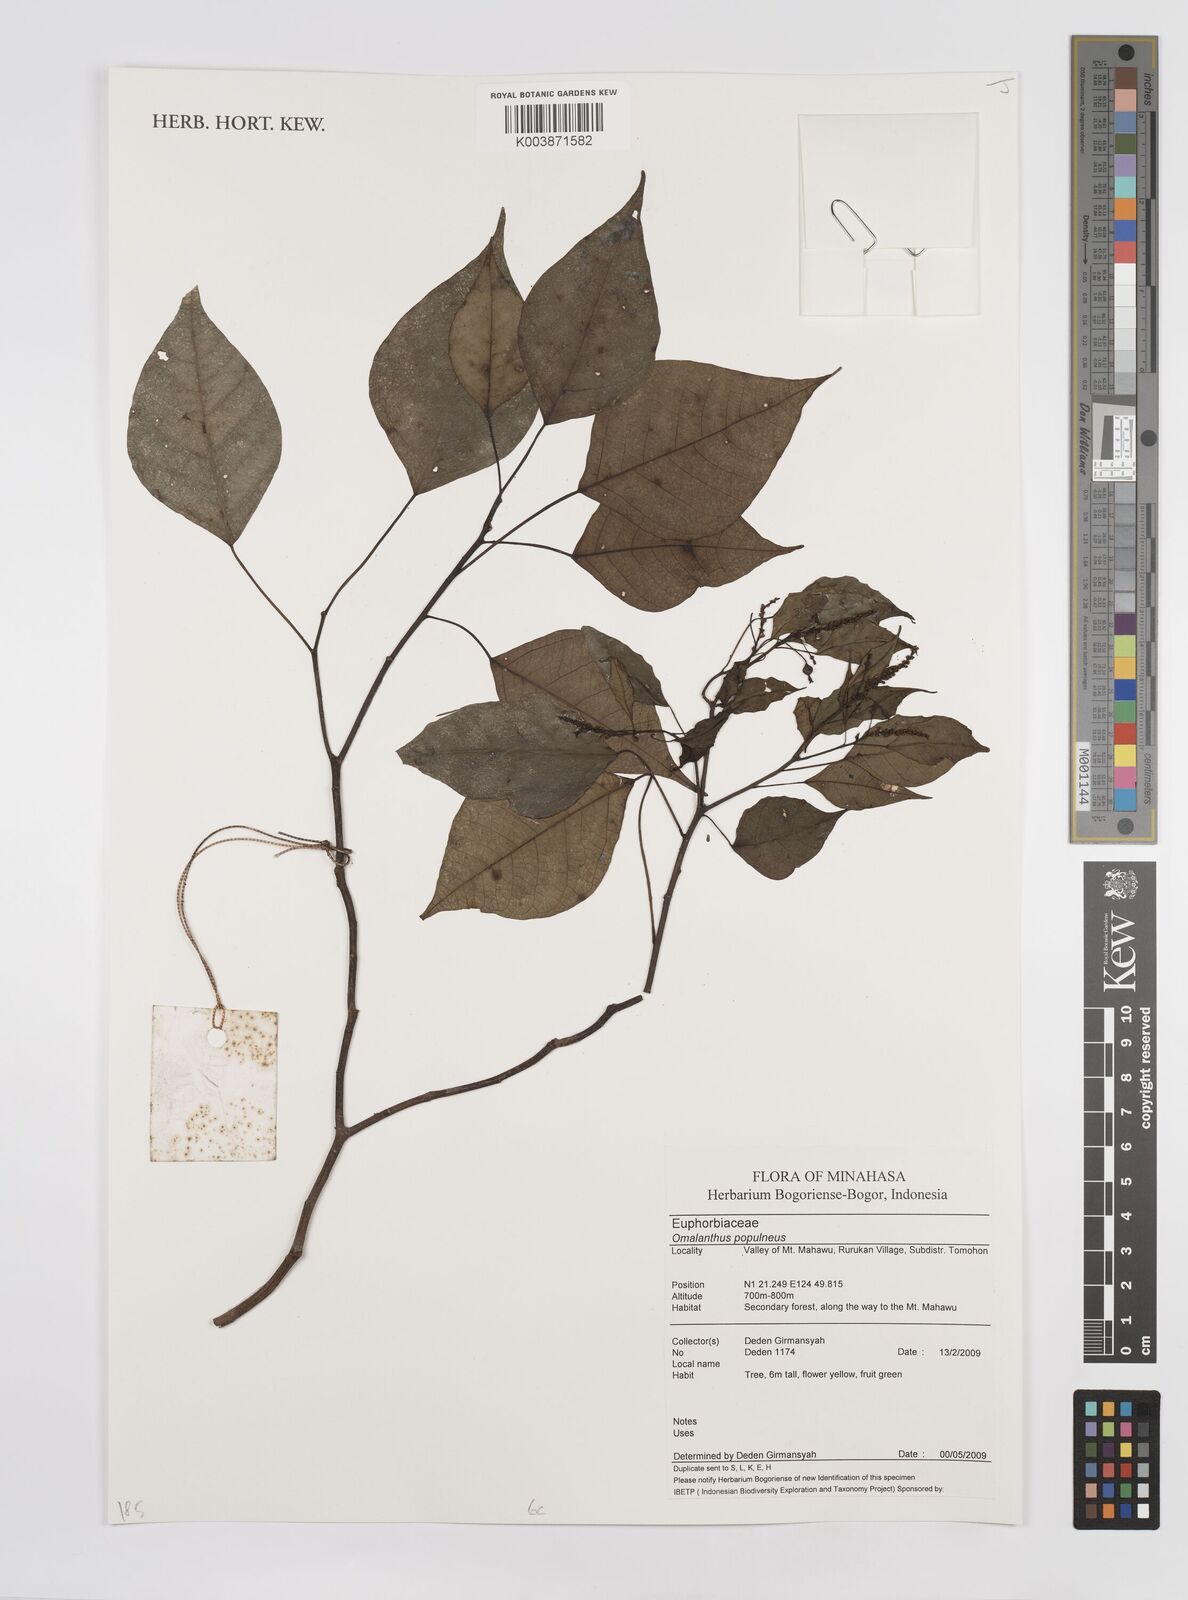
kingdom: Plantae
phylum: Tracheophyta
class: Magnoliopsida
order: Malpighiales
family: Euphorbiaceae
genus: Homalanthus
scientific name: Homalanthus populneus
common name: Spurge
